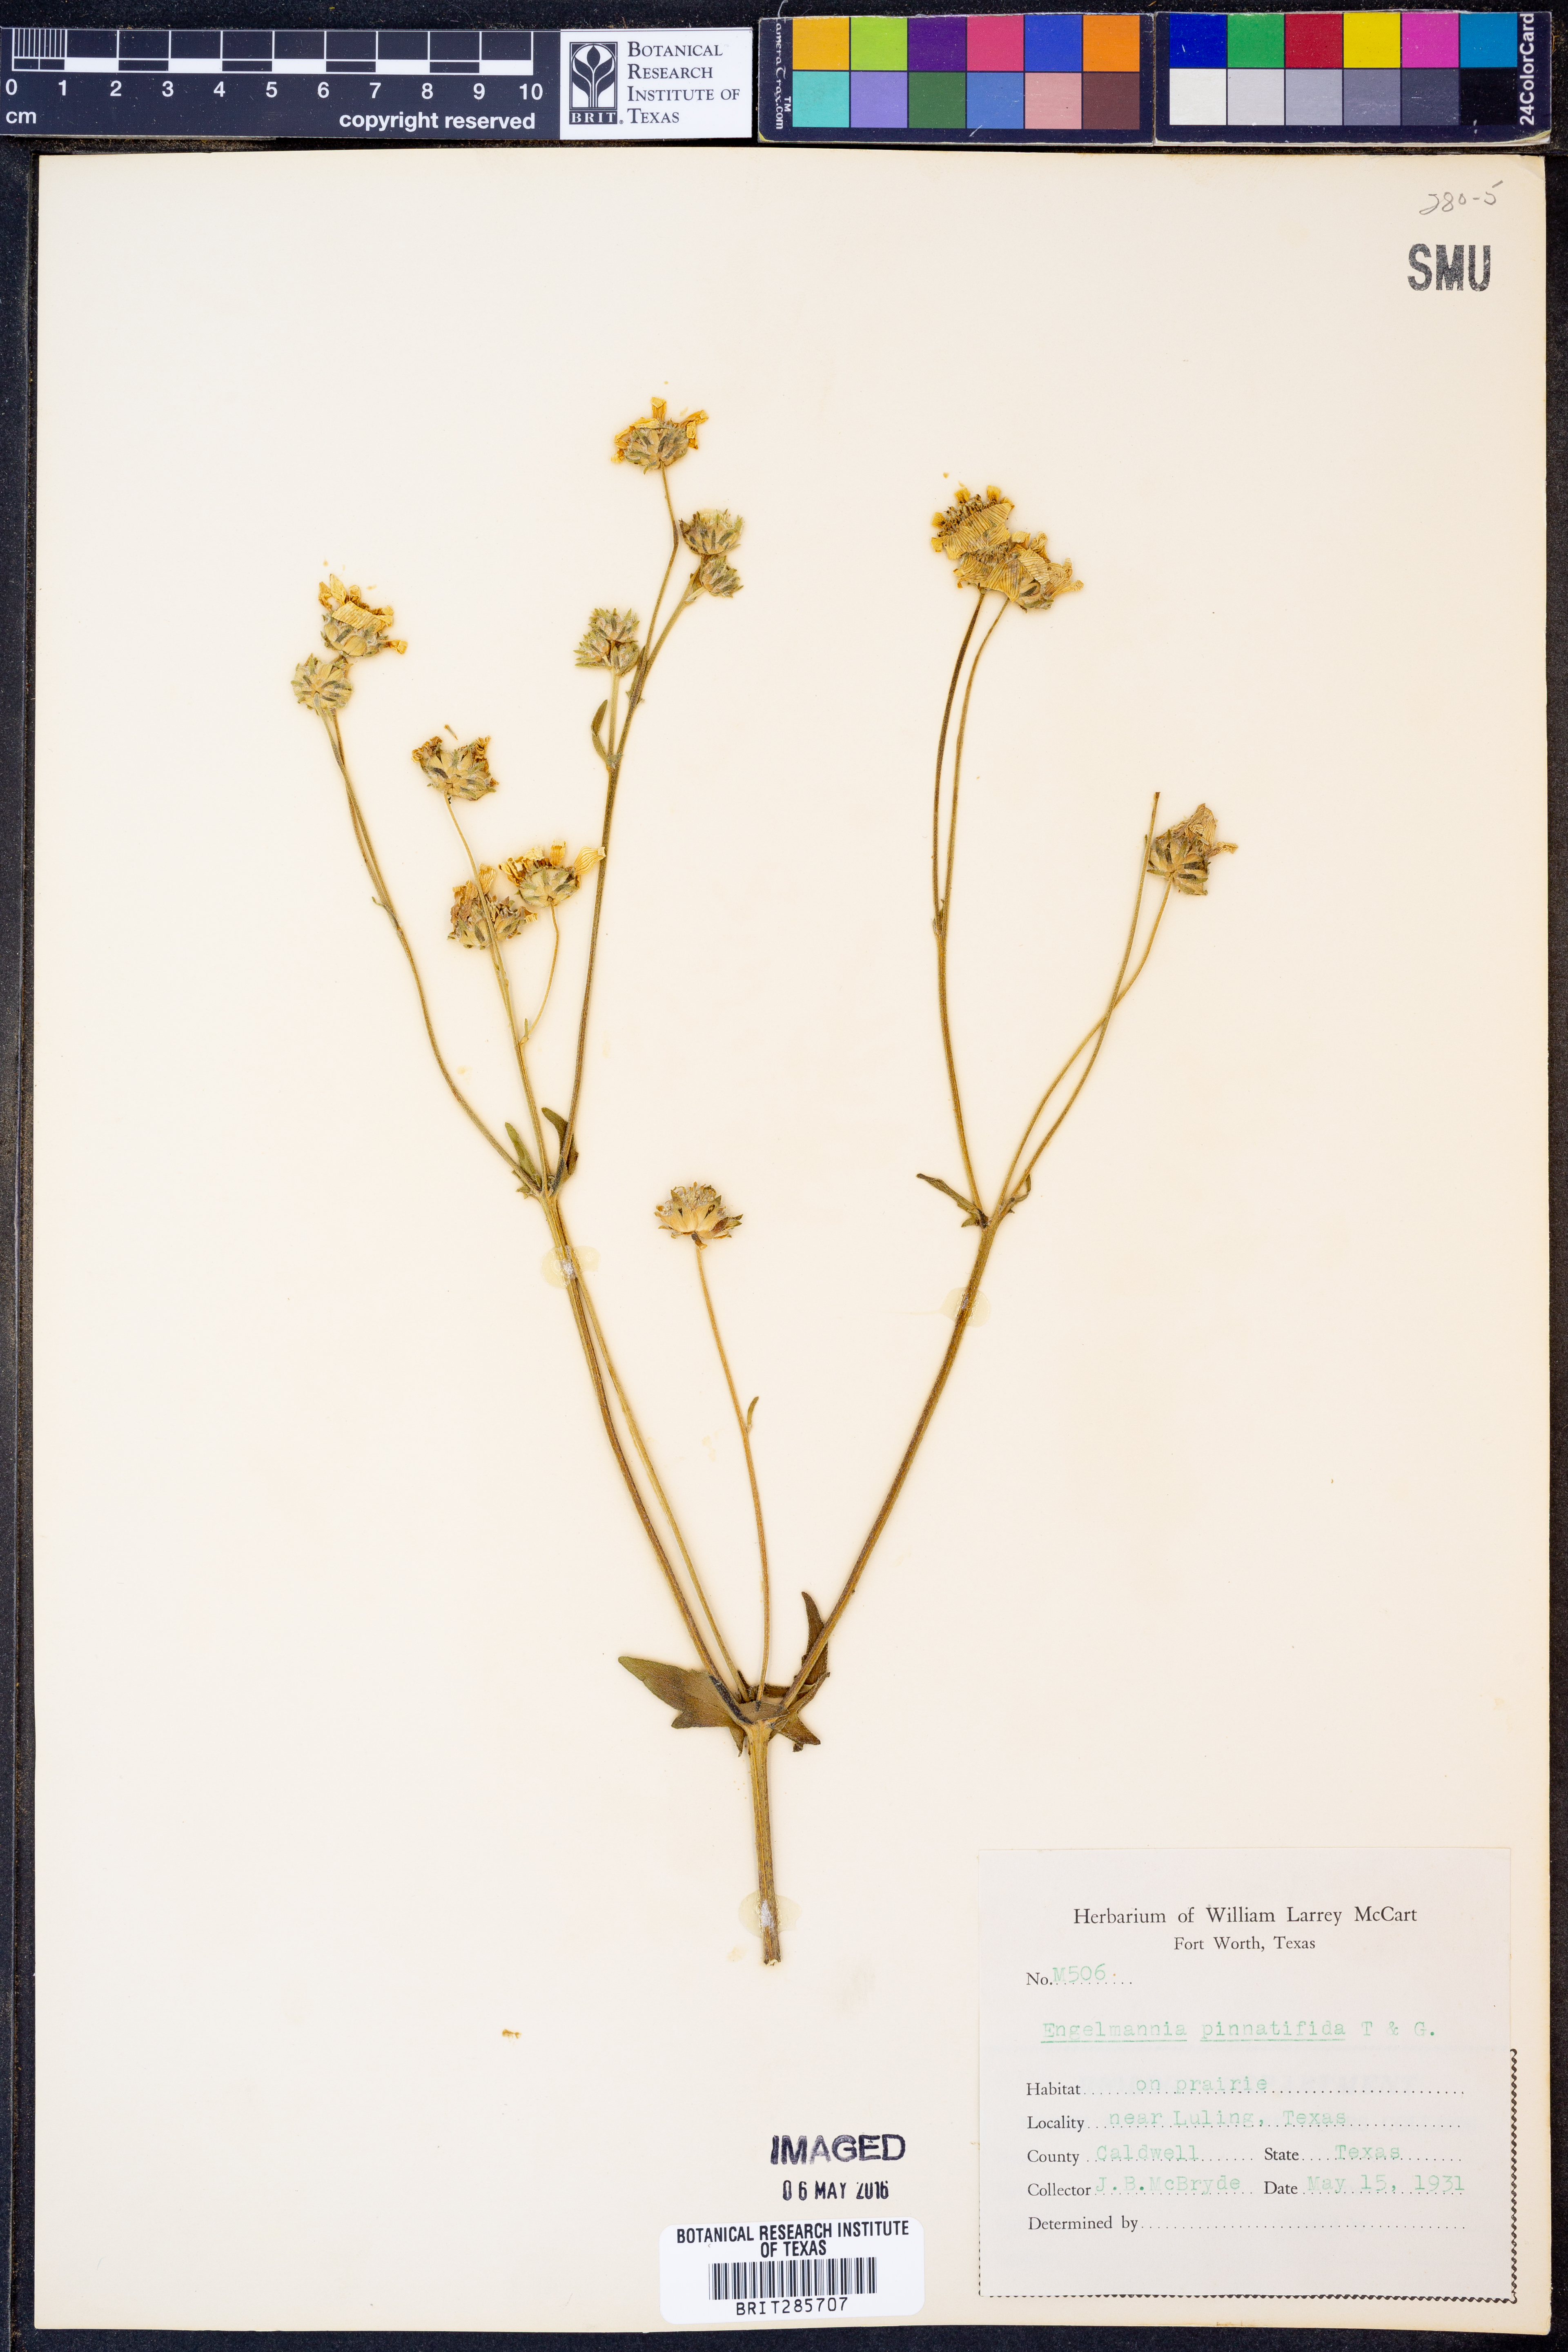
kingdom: Plantae
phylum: Tracheophyta
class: Magnoliopsida
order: Asterales
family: Asteraceae
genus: Engelmannia
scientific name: Engelmannia peristenia
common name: Engelmann's daisy
